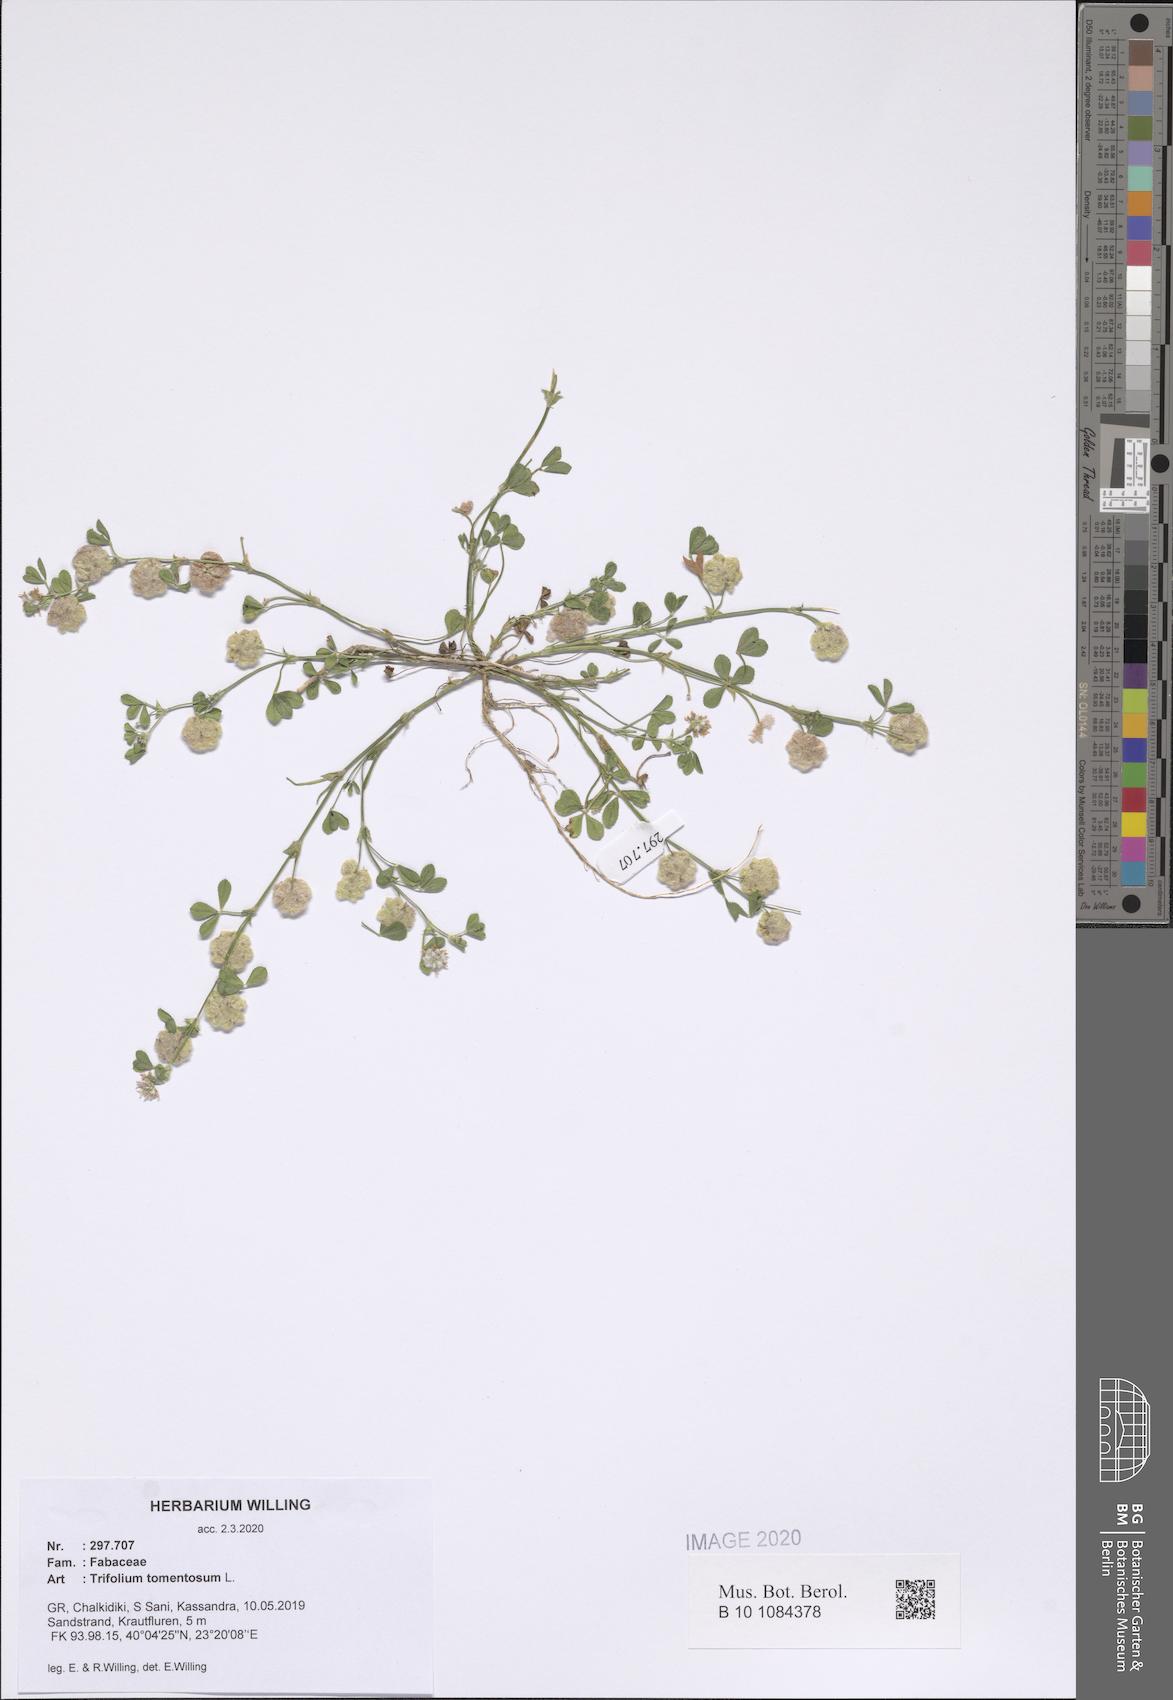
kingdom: Plantae
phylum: Tracheophyta
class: Magnoliopsida
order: Fabales
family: Fabaceae
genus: Trifolium
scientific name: Trifolium tomentosum
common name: Woolly clover
